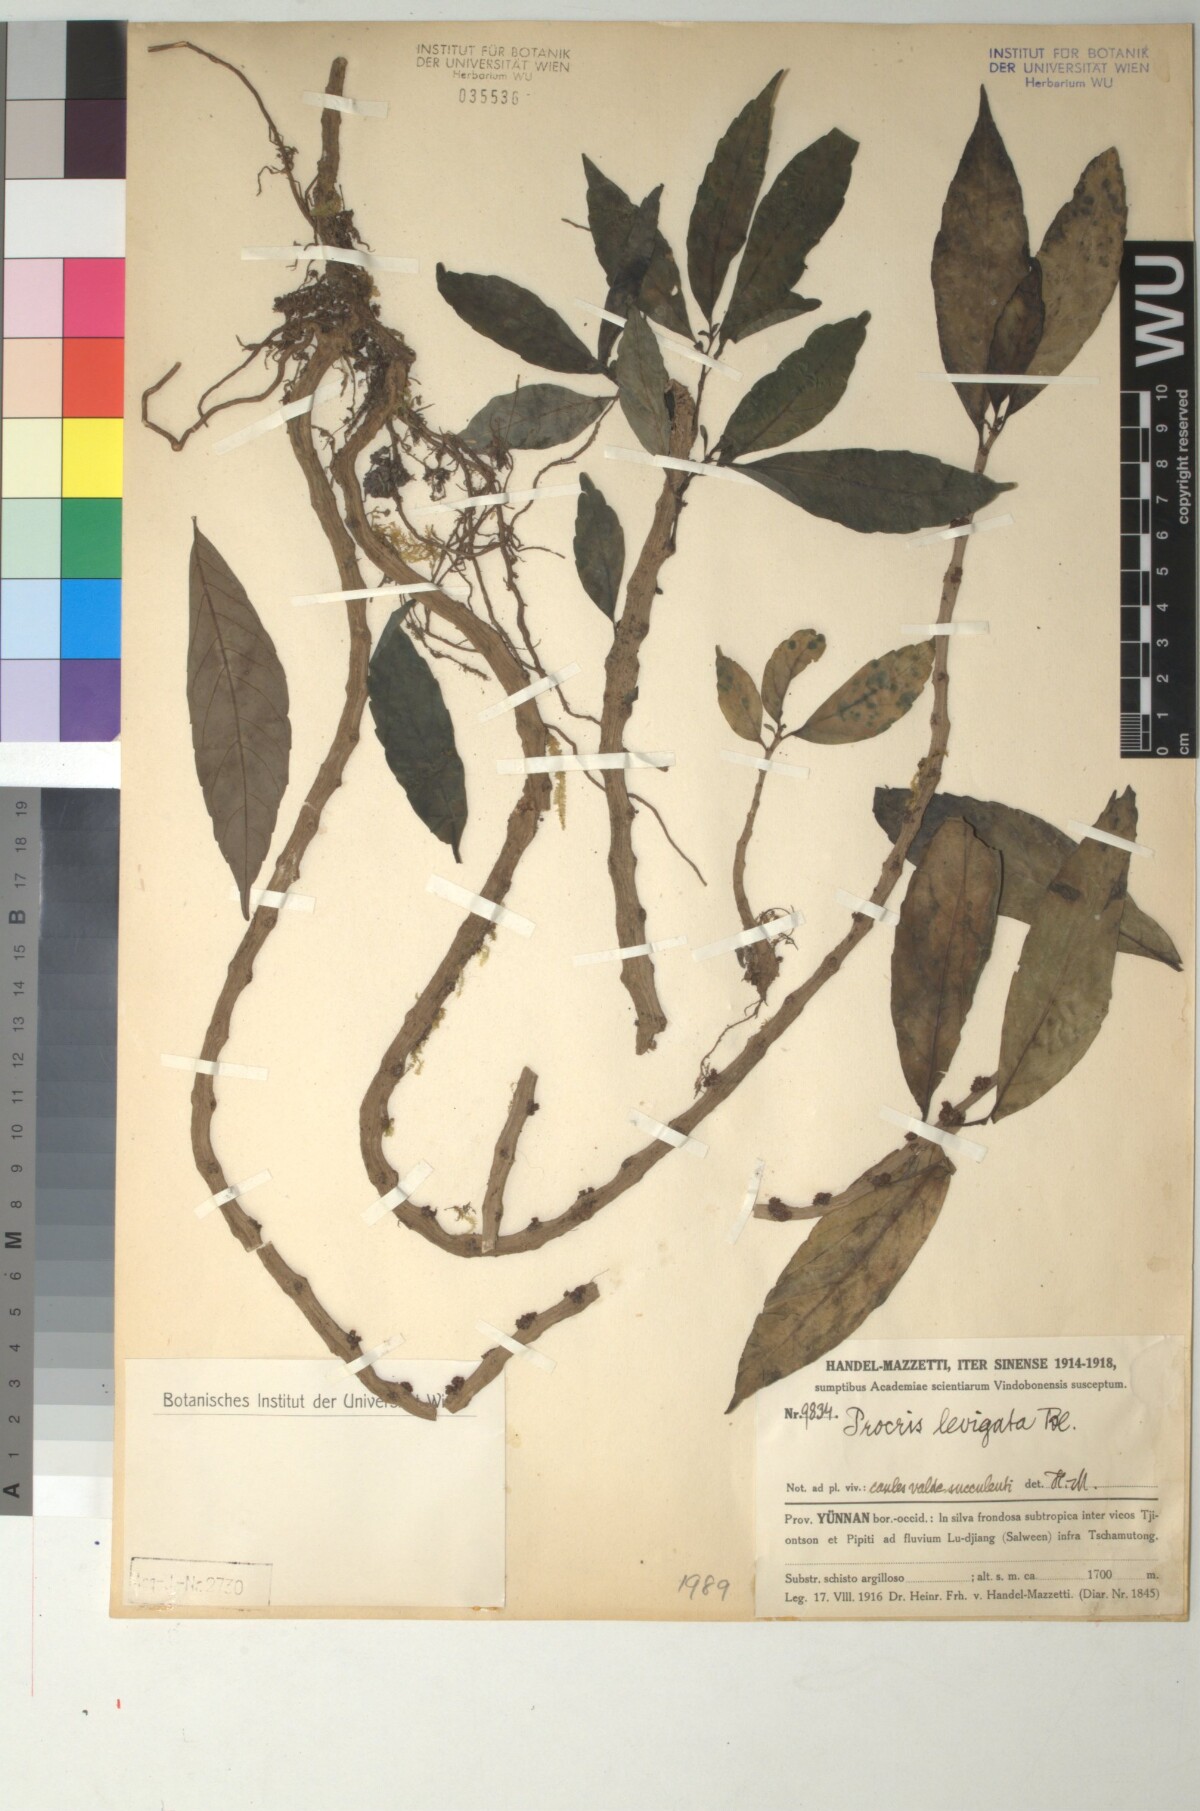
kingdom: Plantae
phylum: Tracheophyta
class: Magnoliopsida
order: Rosales
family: Urticaceae
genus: Procris
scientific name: Procris pedunculata
